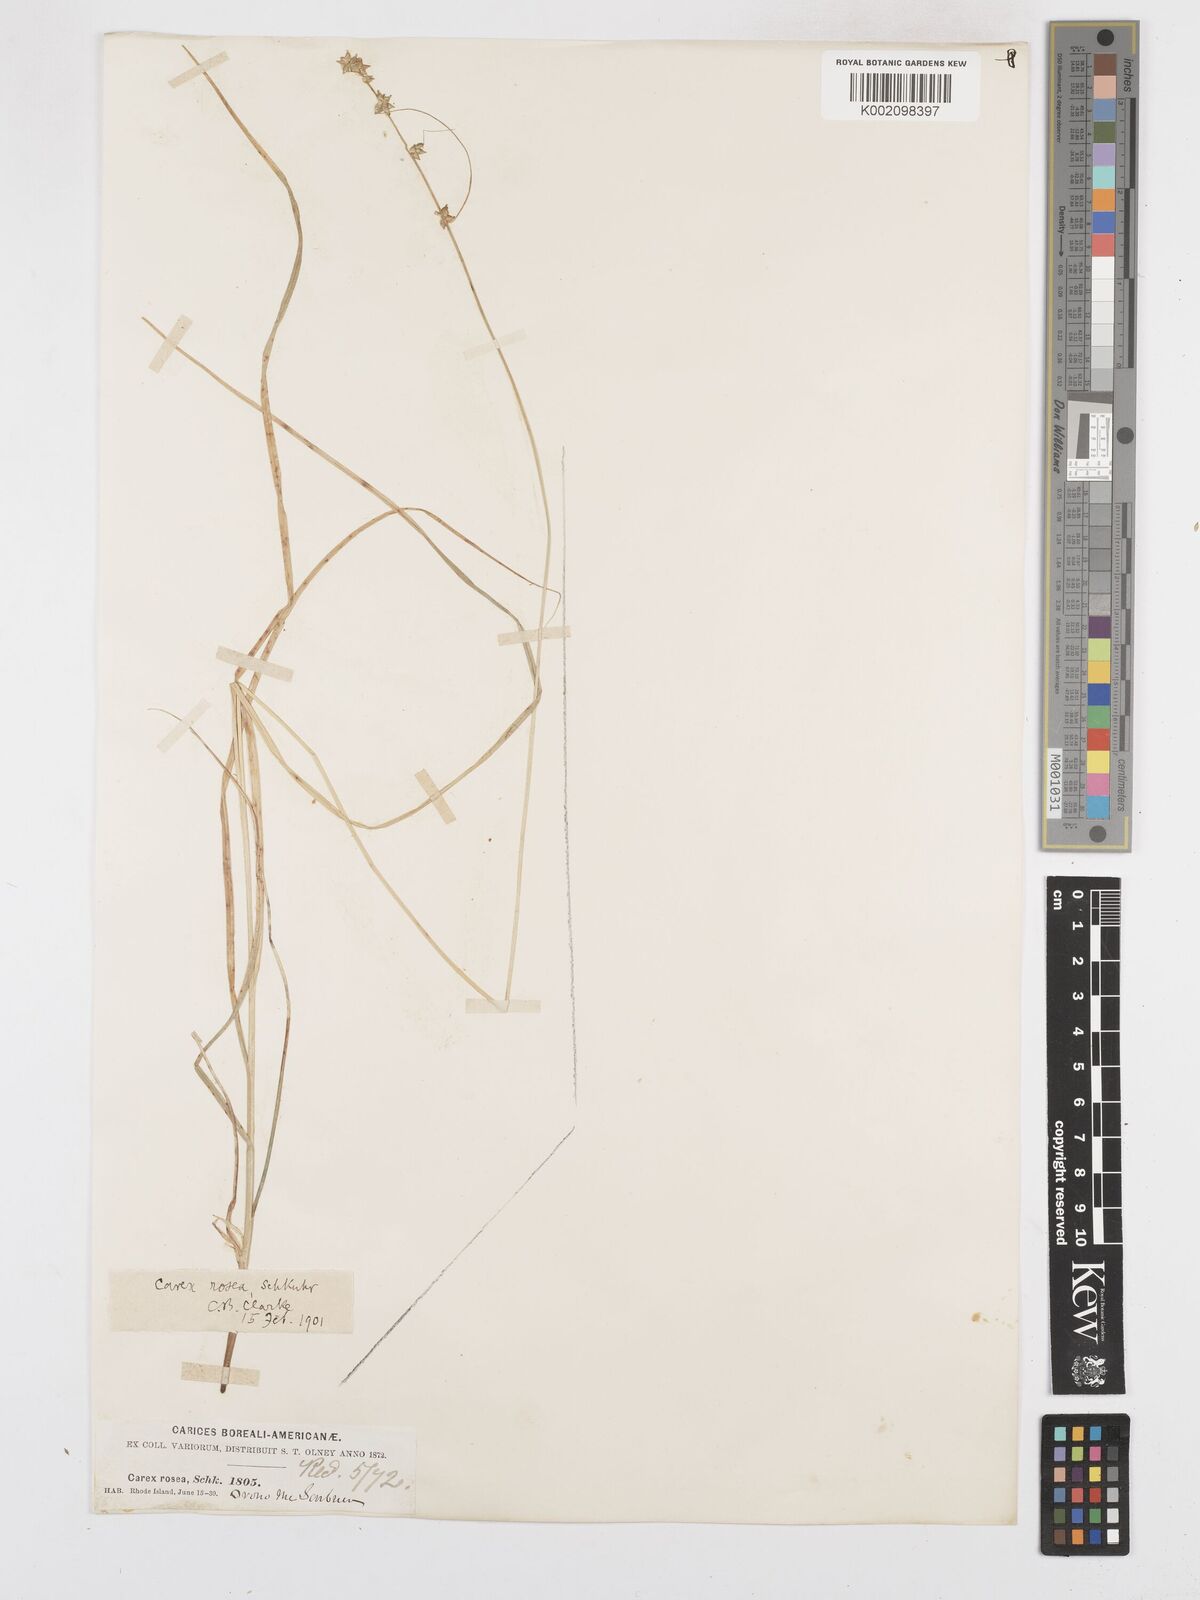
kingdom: Plantae
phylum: Tracheophyta
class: Liliopsida
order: Poales
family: Cyperaceae
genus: Carex
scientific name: Carex rosea
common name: Curly-styled wood sedge
